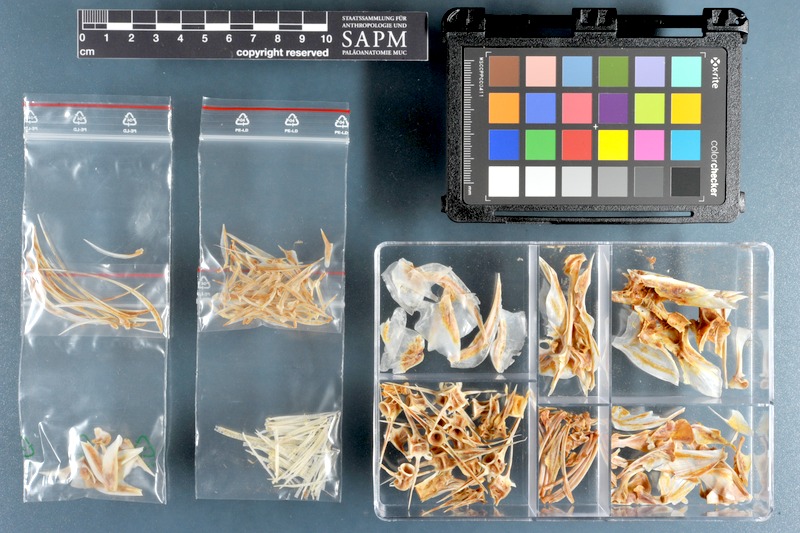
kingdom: Animalia
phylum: Chordata
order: Perciformes
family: Carangidae
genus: Carangoides
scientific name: Carangoides bajad
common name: Orangespotted trevally
